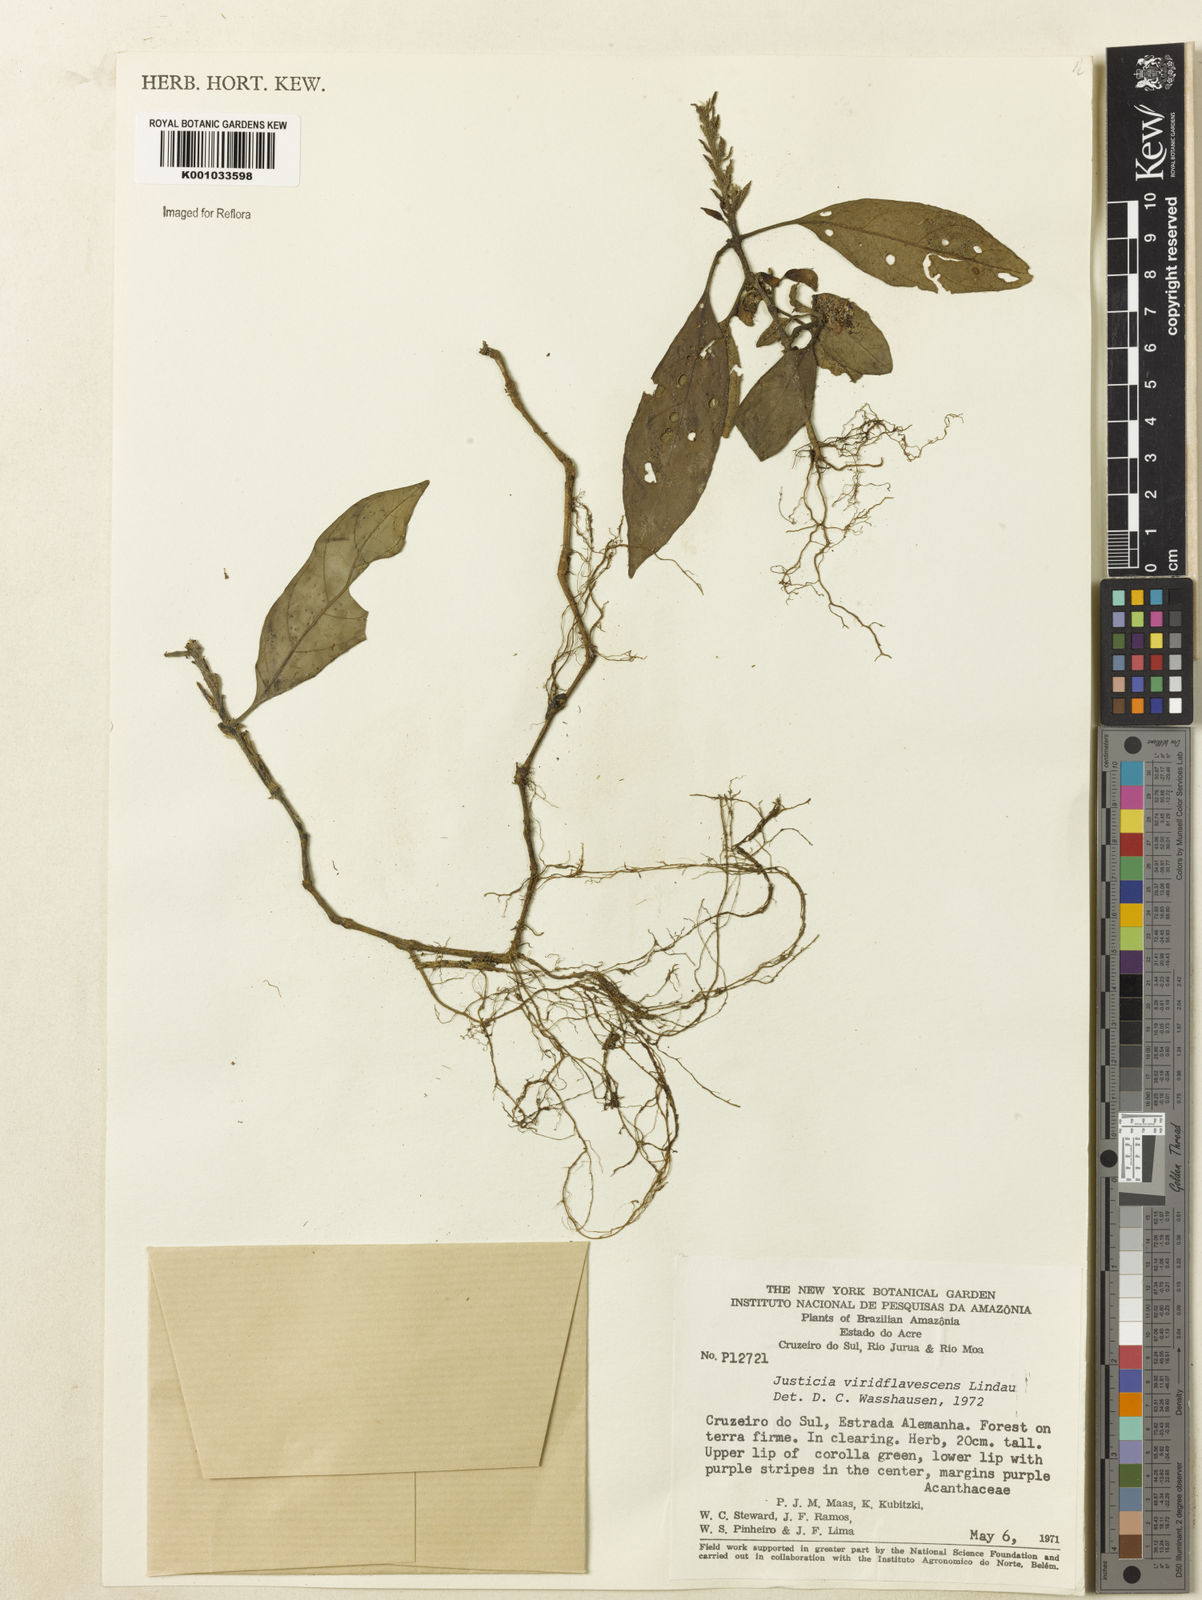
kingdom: Plantae
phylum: Tracheophyta
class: Magnoliopsida
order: Lamiales
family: Acanthaceae
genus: Justicia
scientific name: Justicia viridifavescens
